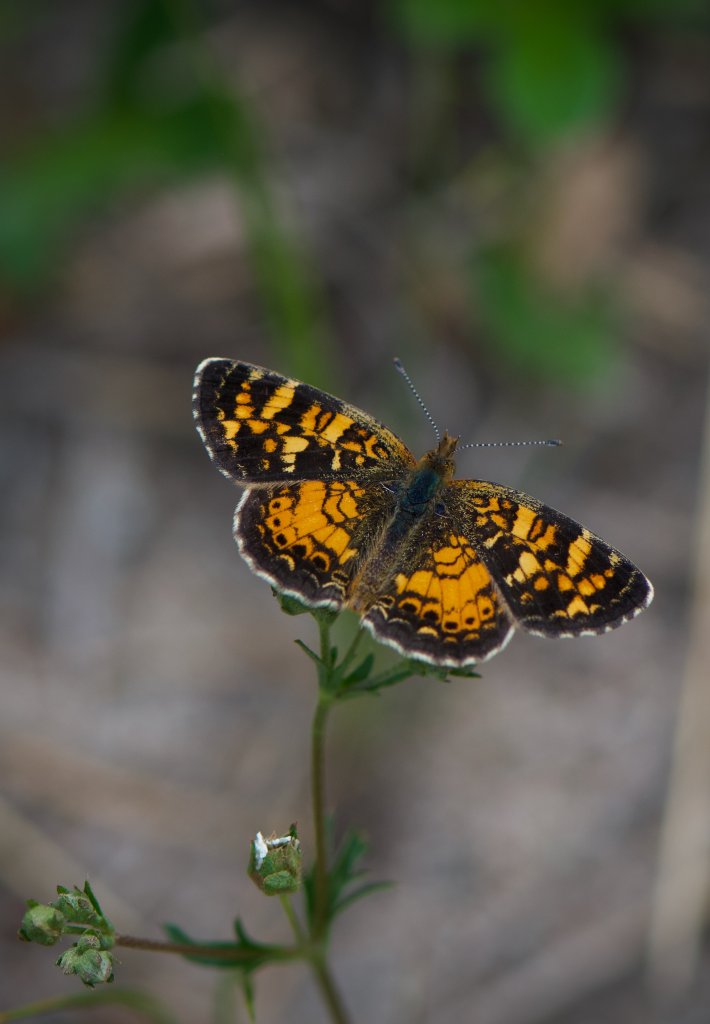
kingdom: Animalia
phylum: Arthropoda
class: Insecta
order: Lepidoptera
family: Nymphalidae
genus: Phyciodes
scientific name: Phyciodes tharos
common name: Northern Crescent
